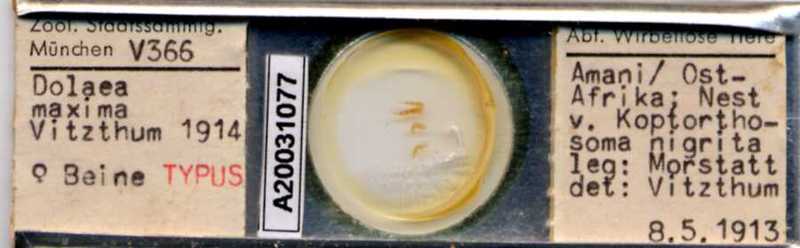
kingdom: Animalia
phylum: Arthropoda
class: Arachnida
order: Mesostigmata
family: Laelapidae
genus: Dinogamasus
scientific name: Dinogamasus
